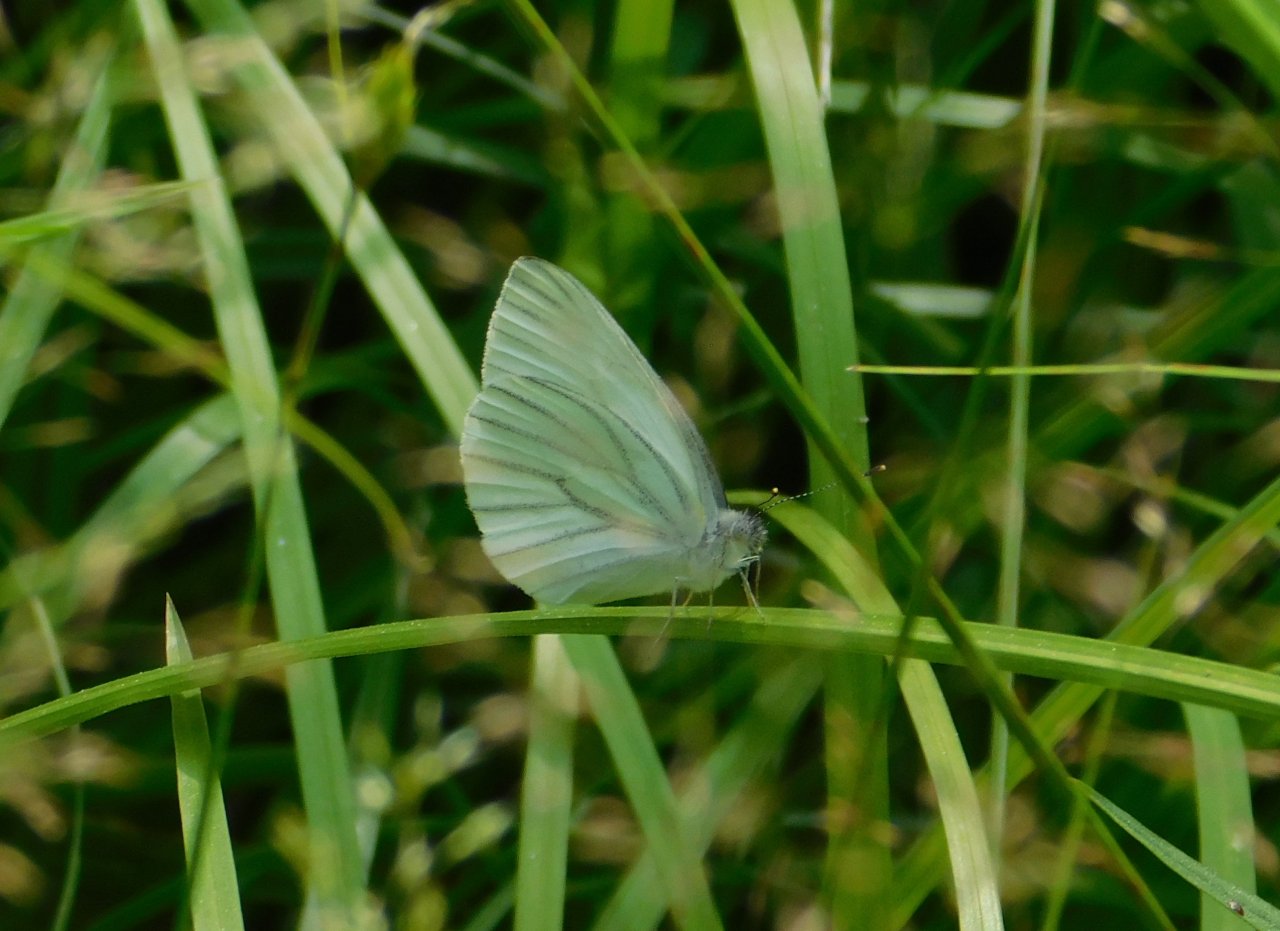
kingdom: Animalia
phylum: Arthropoda
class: Insecta
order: Lepidoptera
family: Pieridae
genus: Pieris
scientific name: Pieris oleracea
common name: Mustard White
